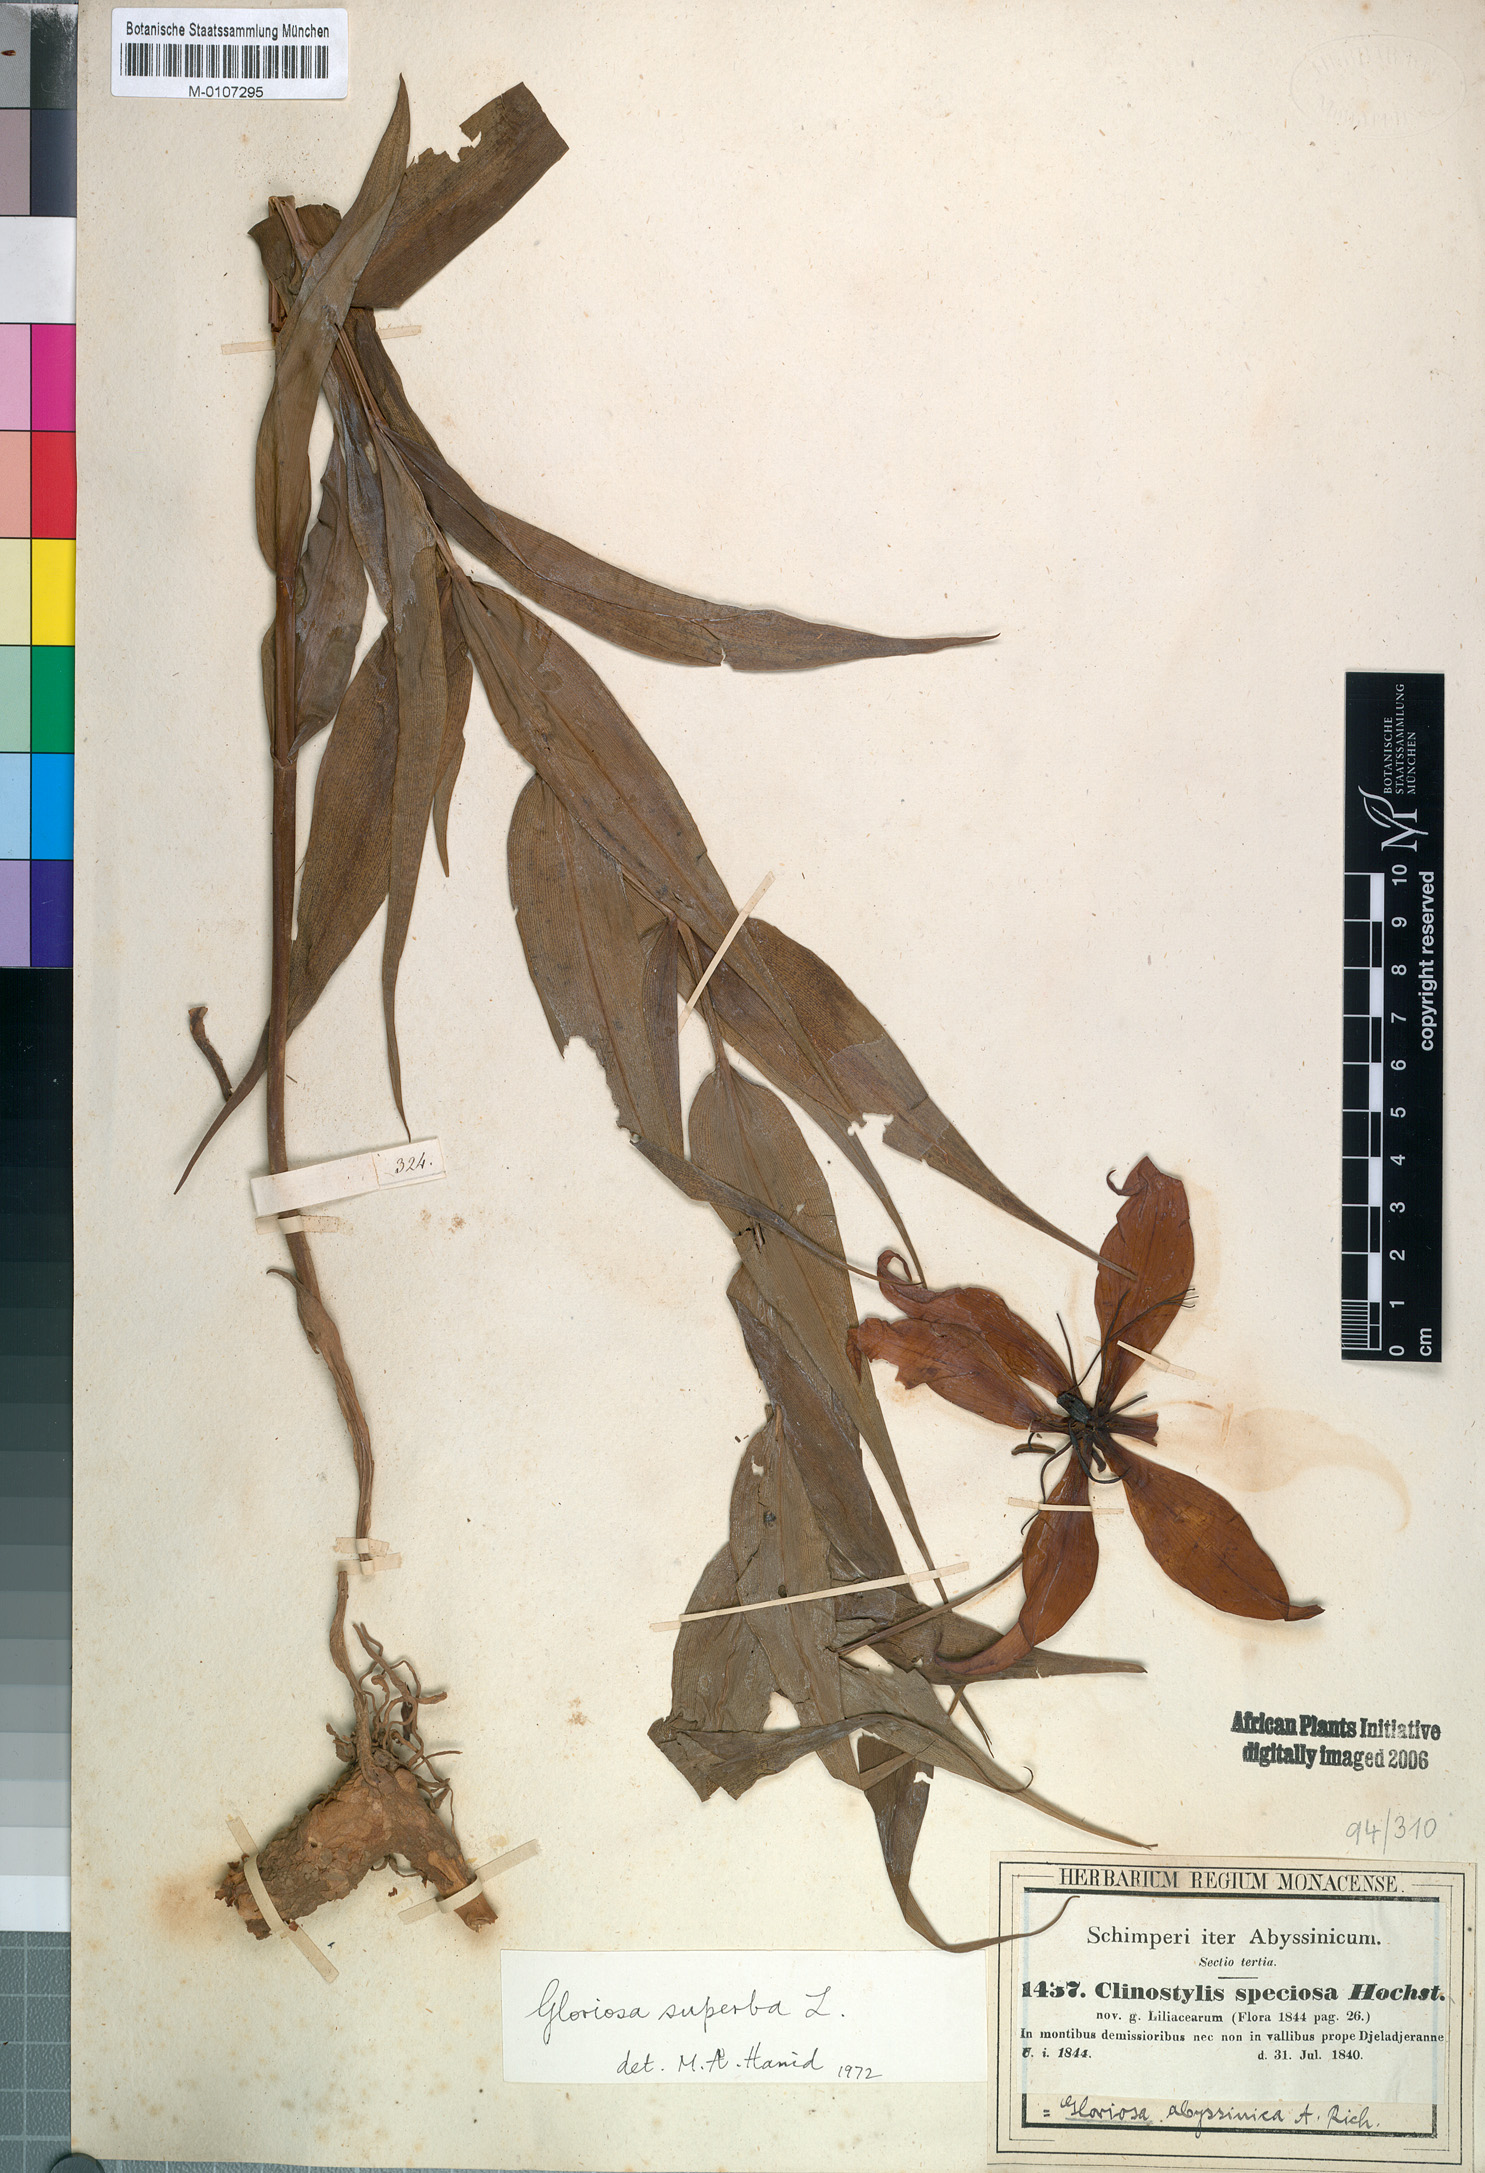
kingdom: Plantae
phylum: Tracheophyta
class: Liliopsida
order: Liliales
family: Colchicaceae
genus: Gloriosa
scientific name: Gloriosa superba
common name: Flame lily
